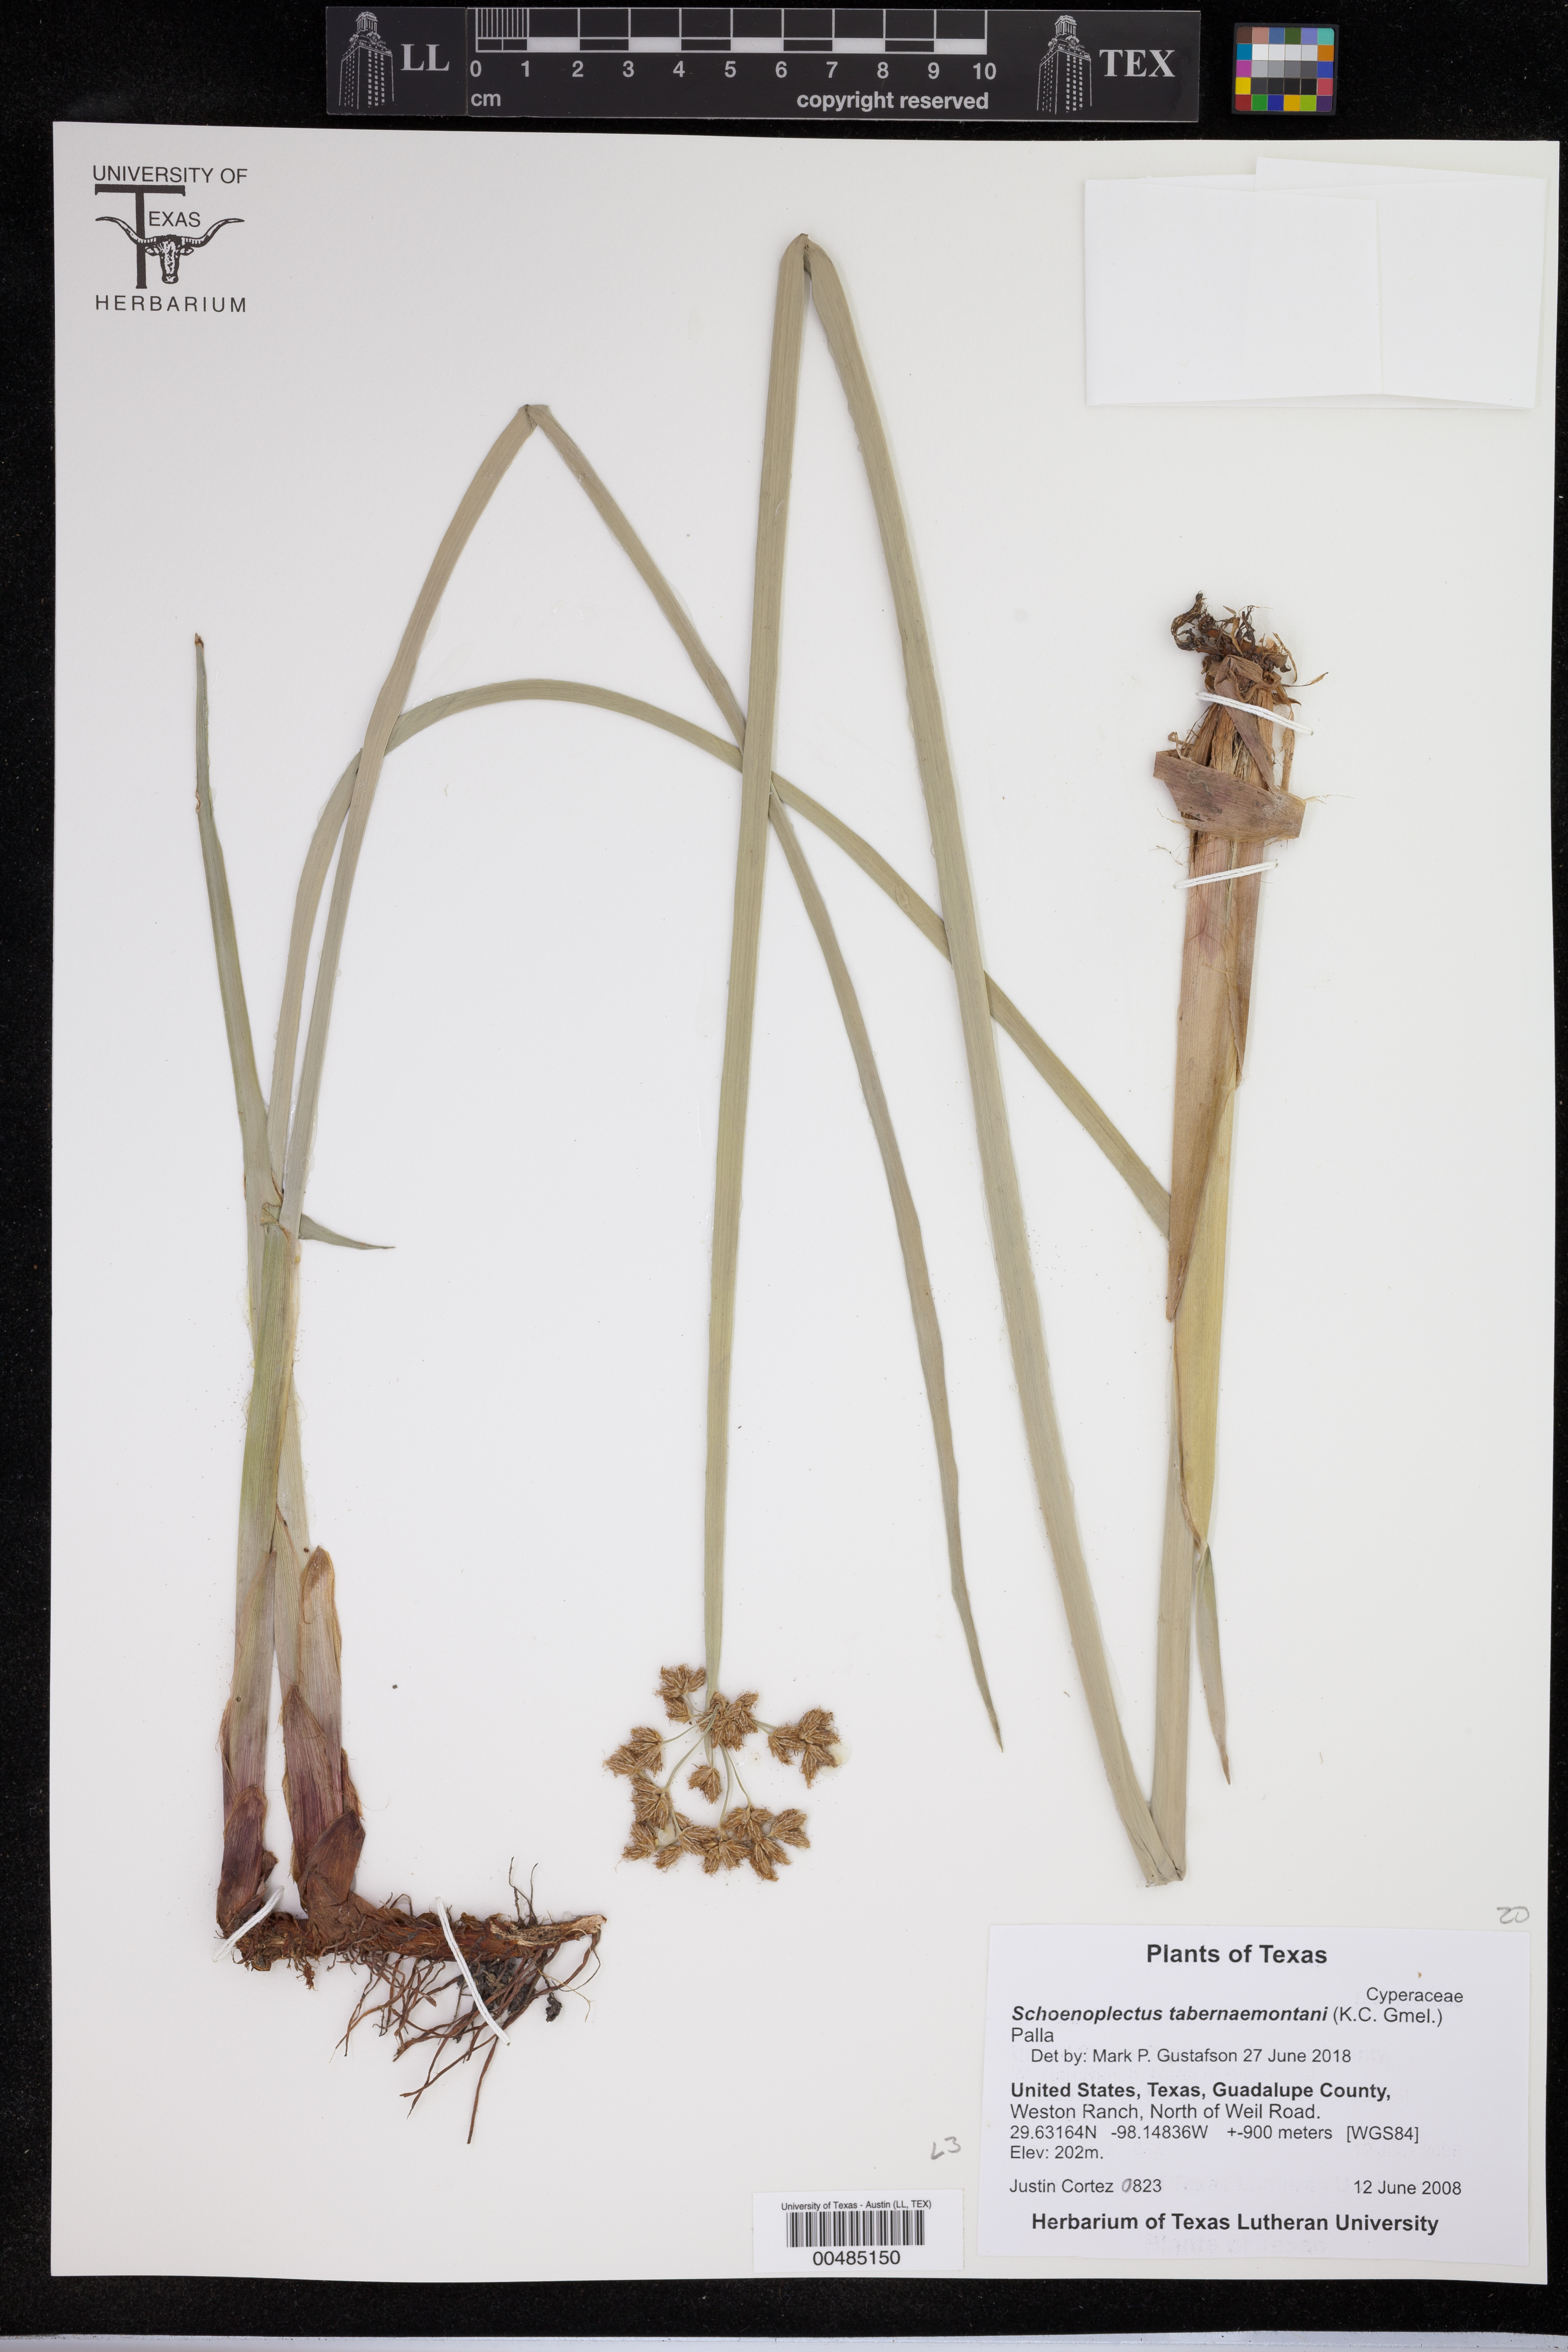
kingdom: Plantae
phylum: Tracheophyta
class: Liliopsida
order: Poales
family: Cyperaceae
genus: Schoenoplectus
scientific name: Schoenoplectus tabernaemontani
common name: Grey club-rush
